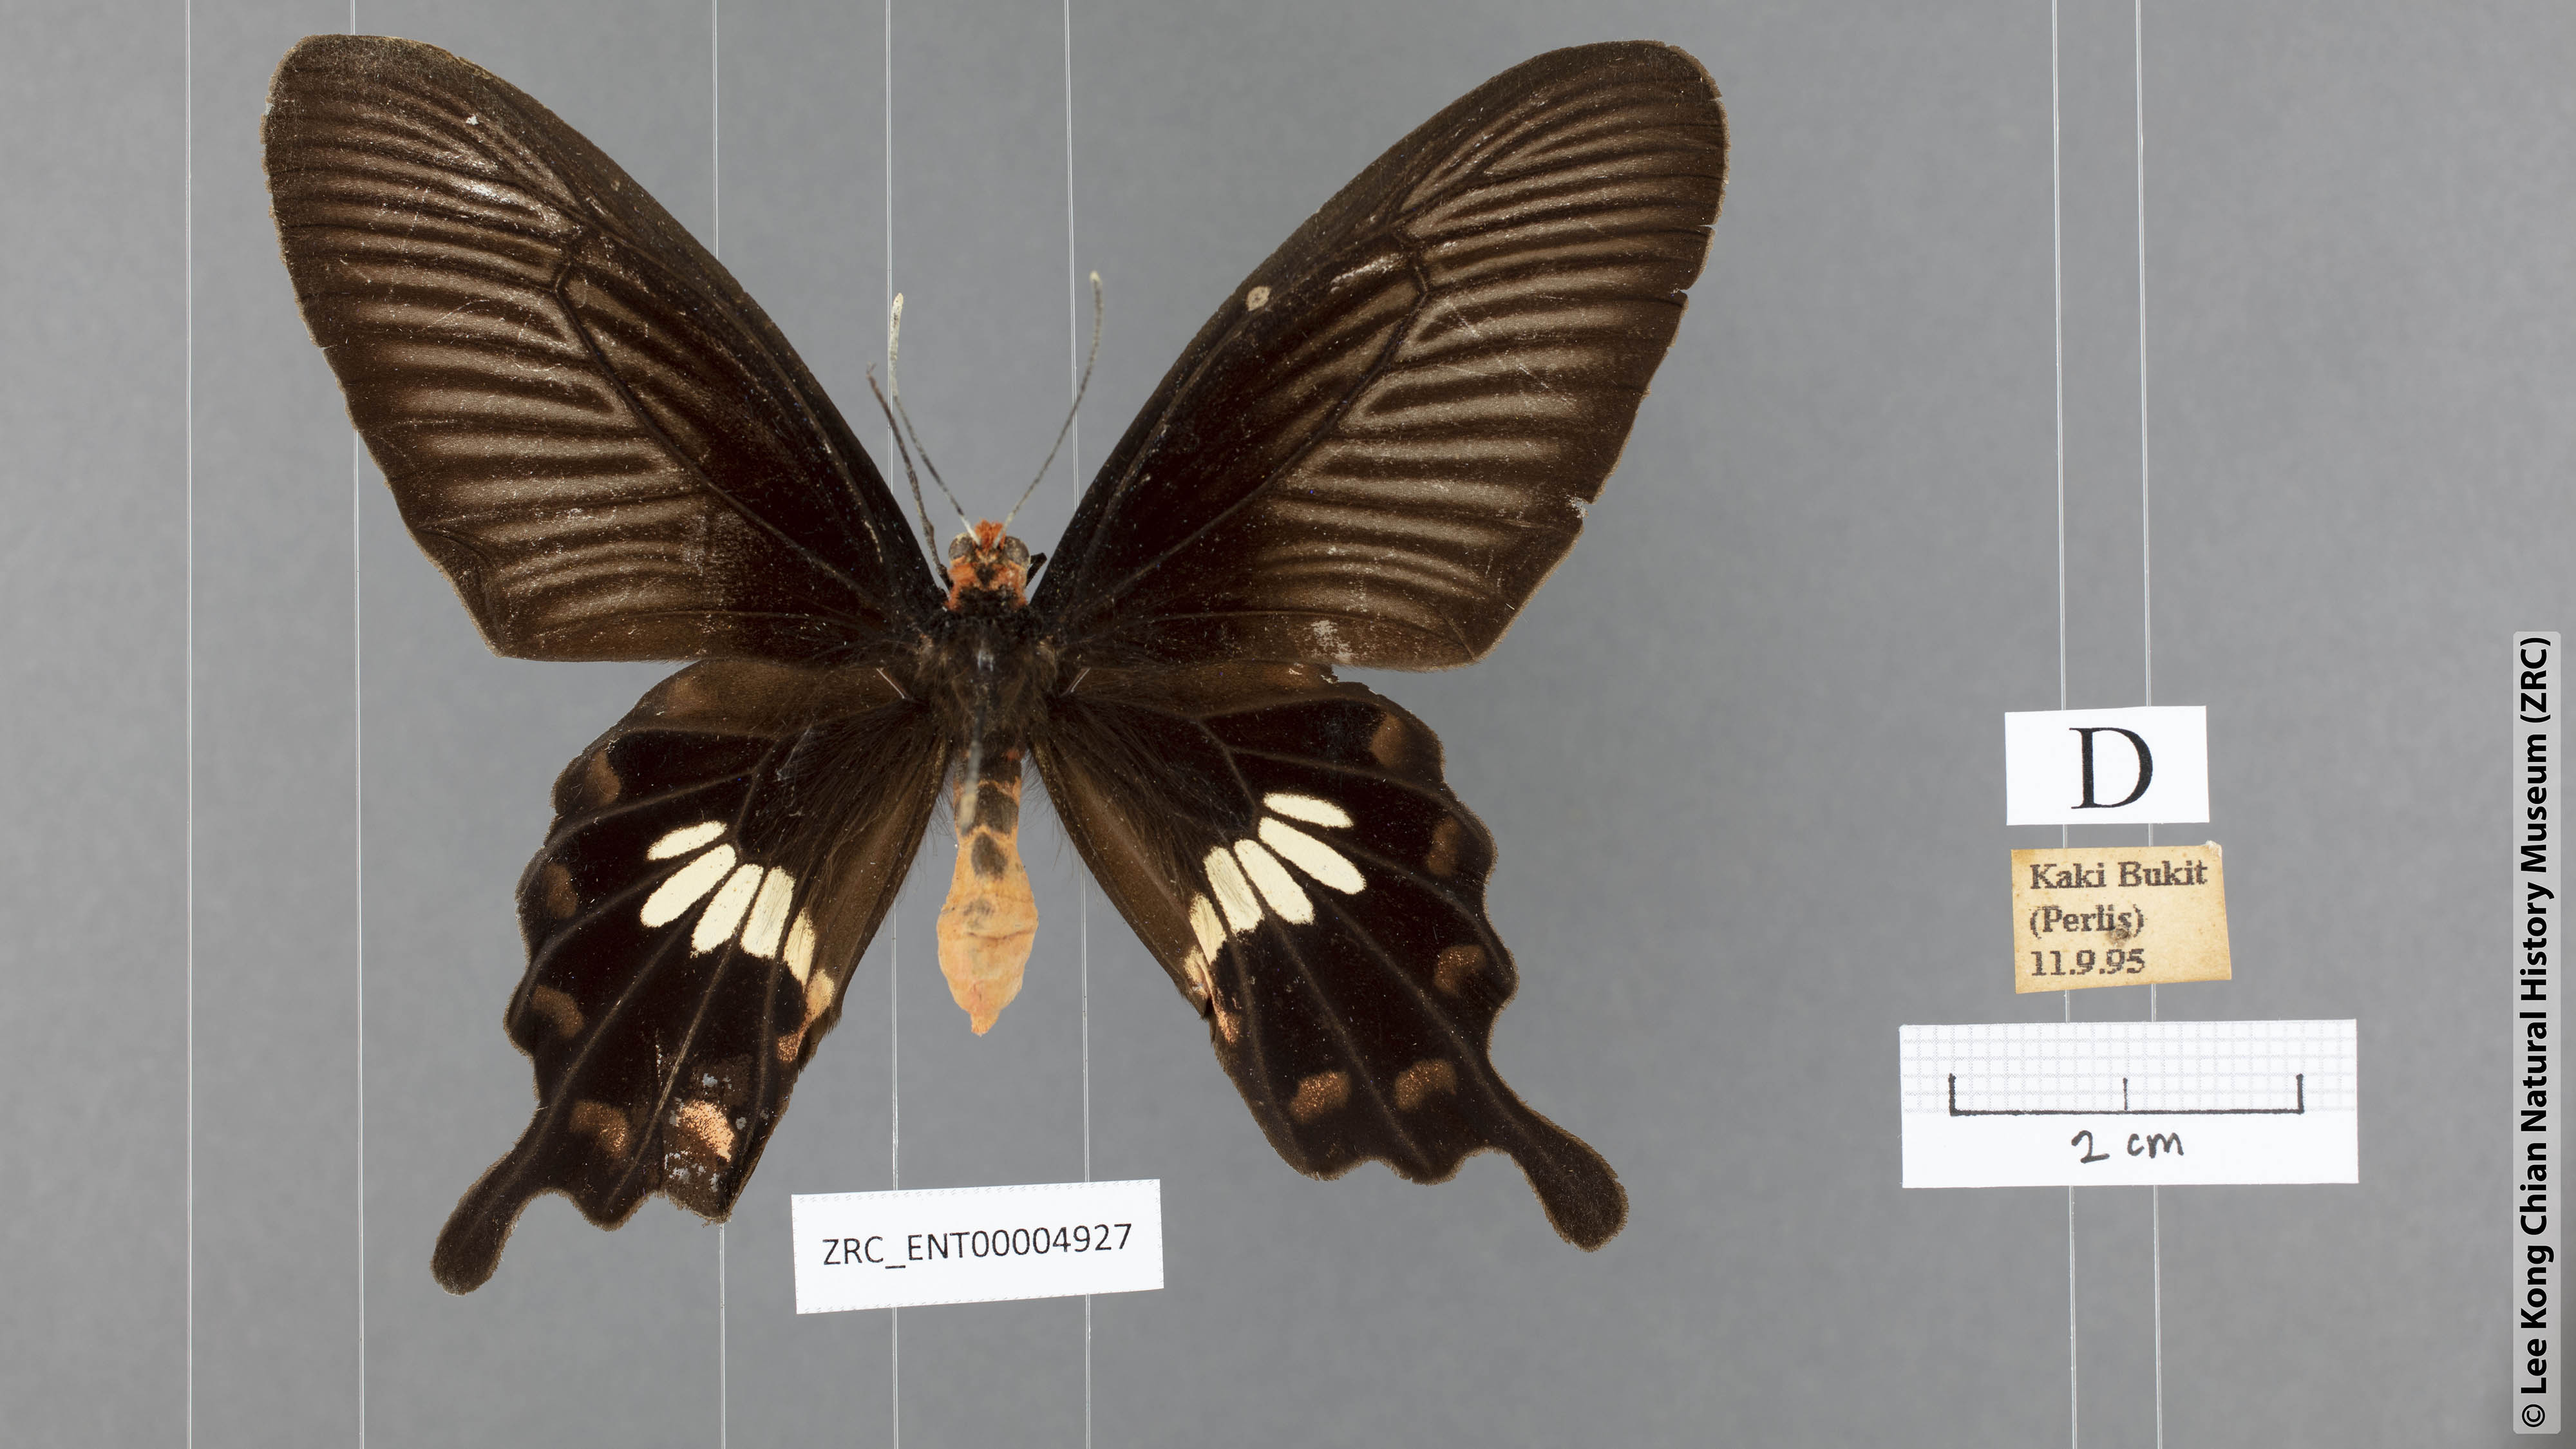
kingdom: Animalia
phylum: Arthropoda
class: Insecta
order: Lepidoptera
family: Papilionidae
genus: Pachliopta
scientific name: Pachliopta aristolochiae
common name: Common rose
